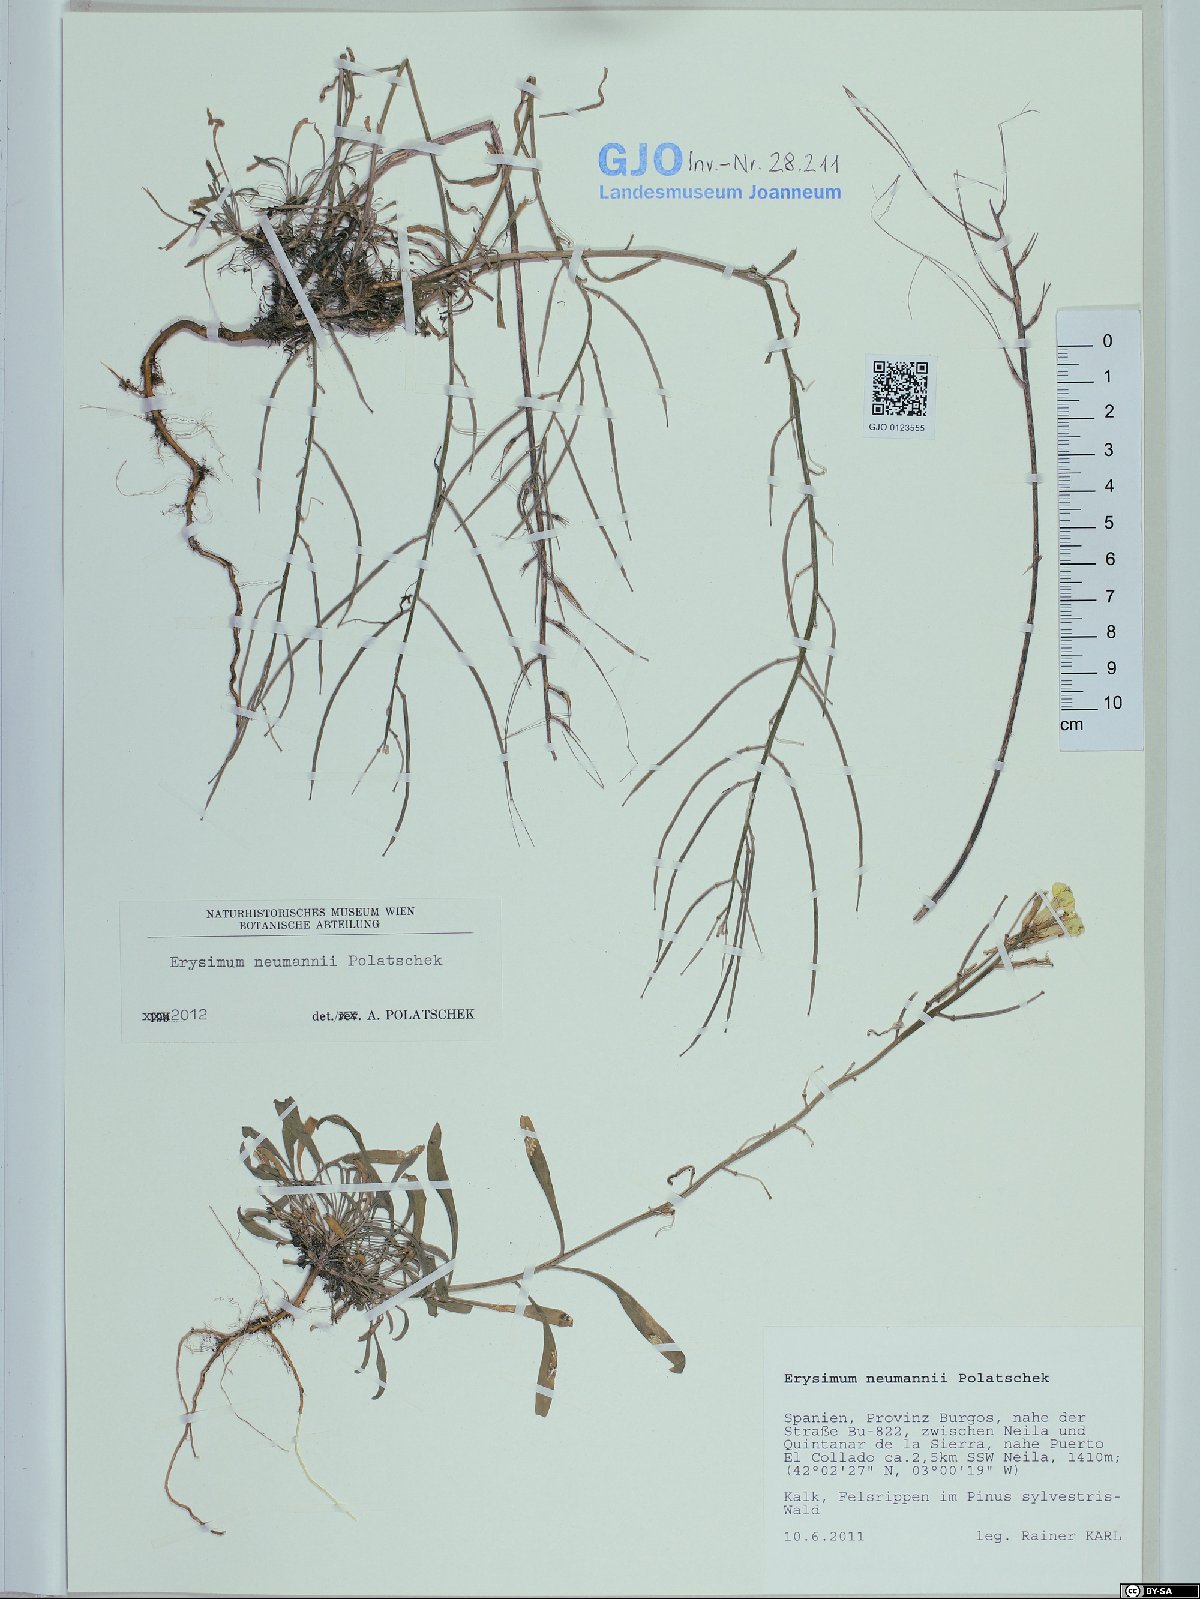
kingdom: Plantae
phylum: Tracheophyta
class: Magnoliopsida
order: Brassicales
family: Brassicaceae
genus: Erysimum
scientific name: Erysimum duriaei
